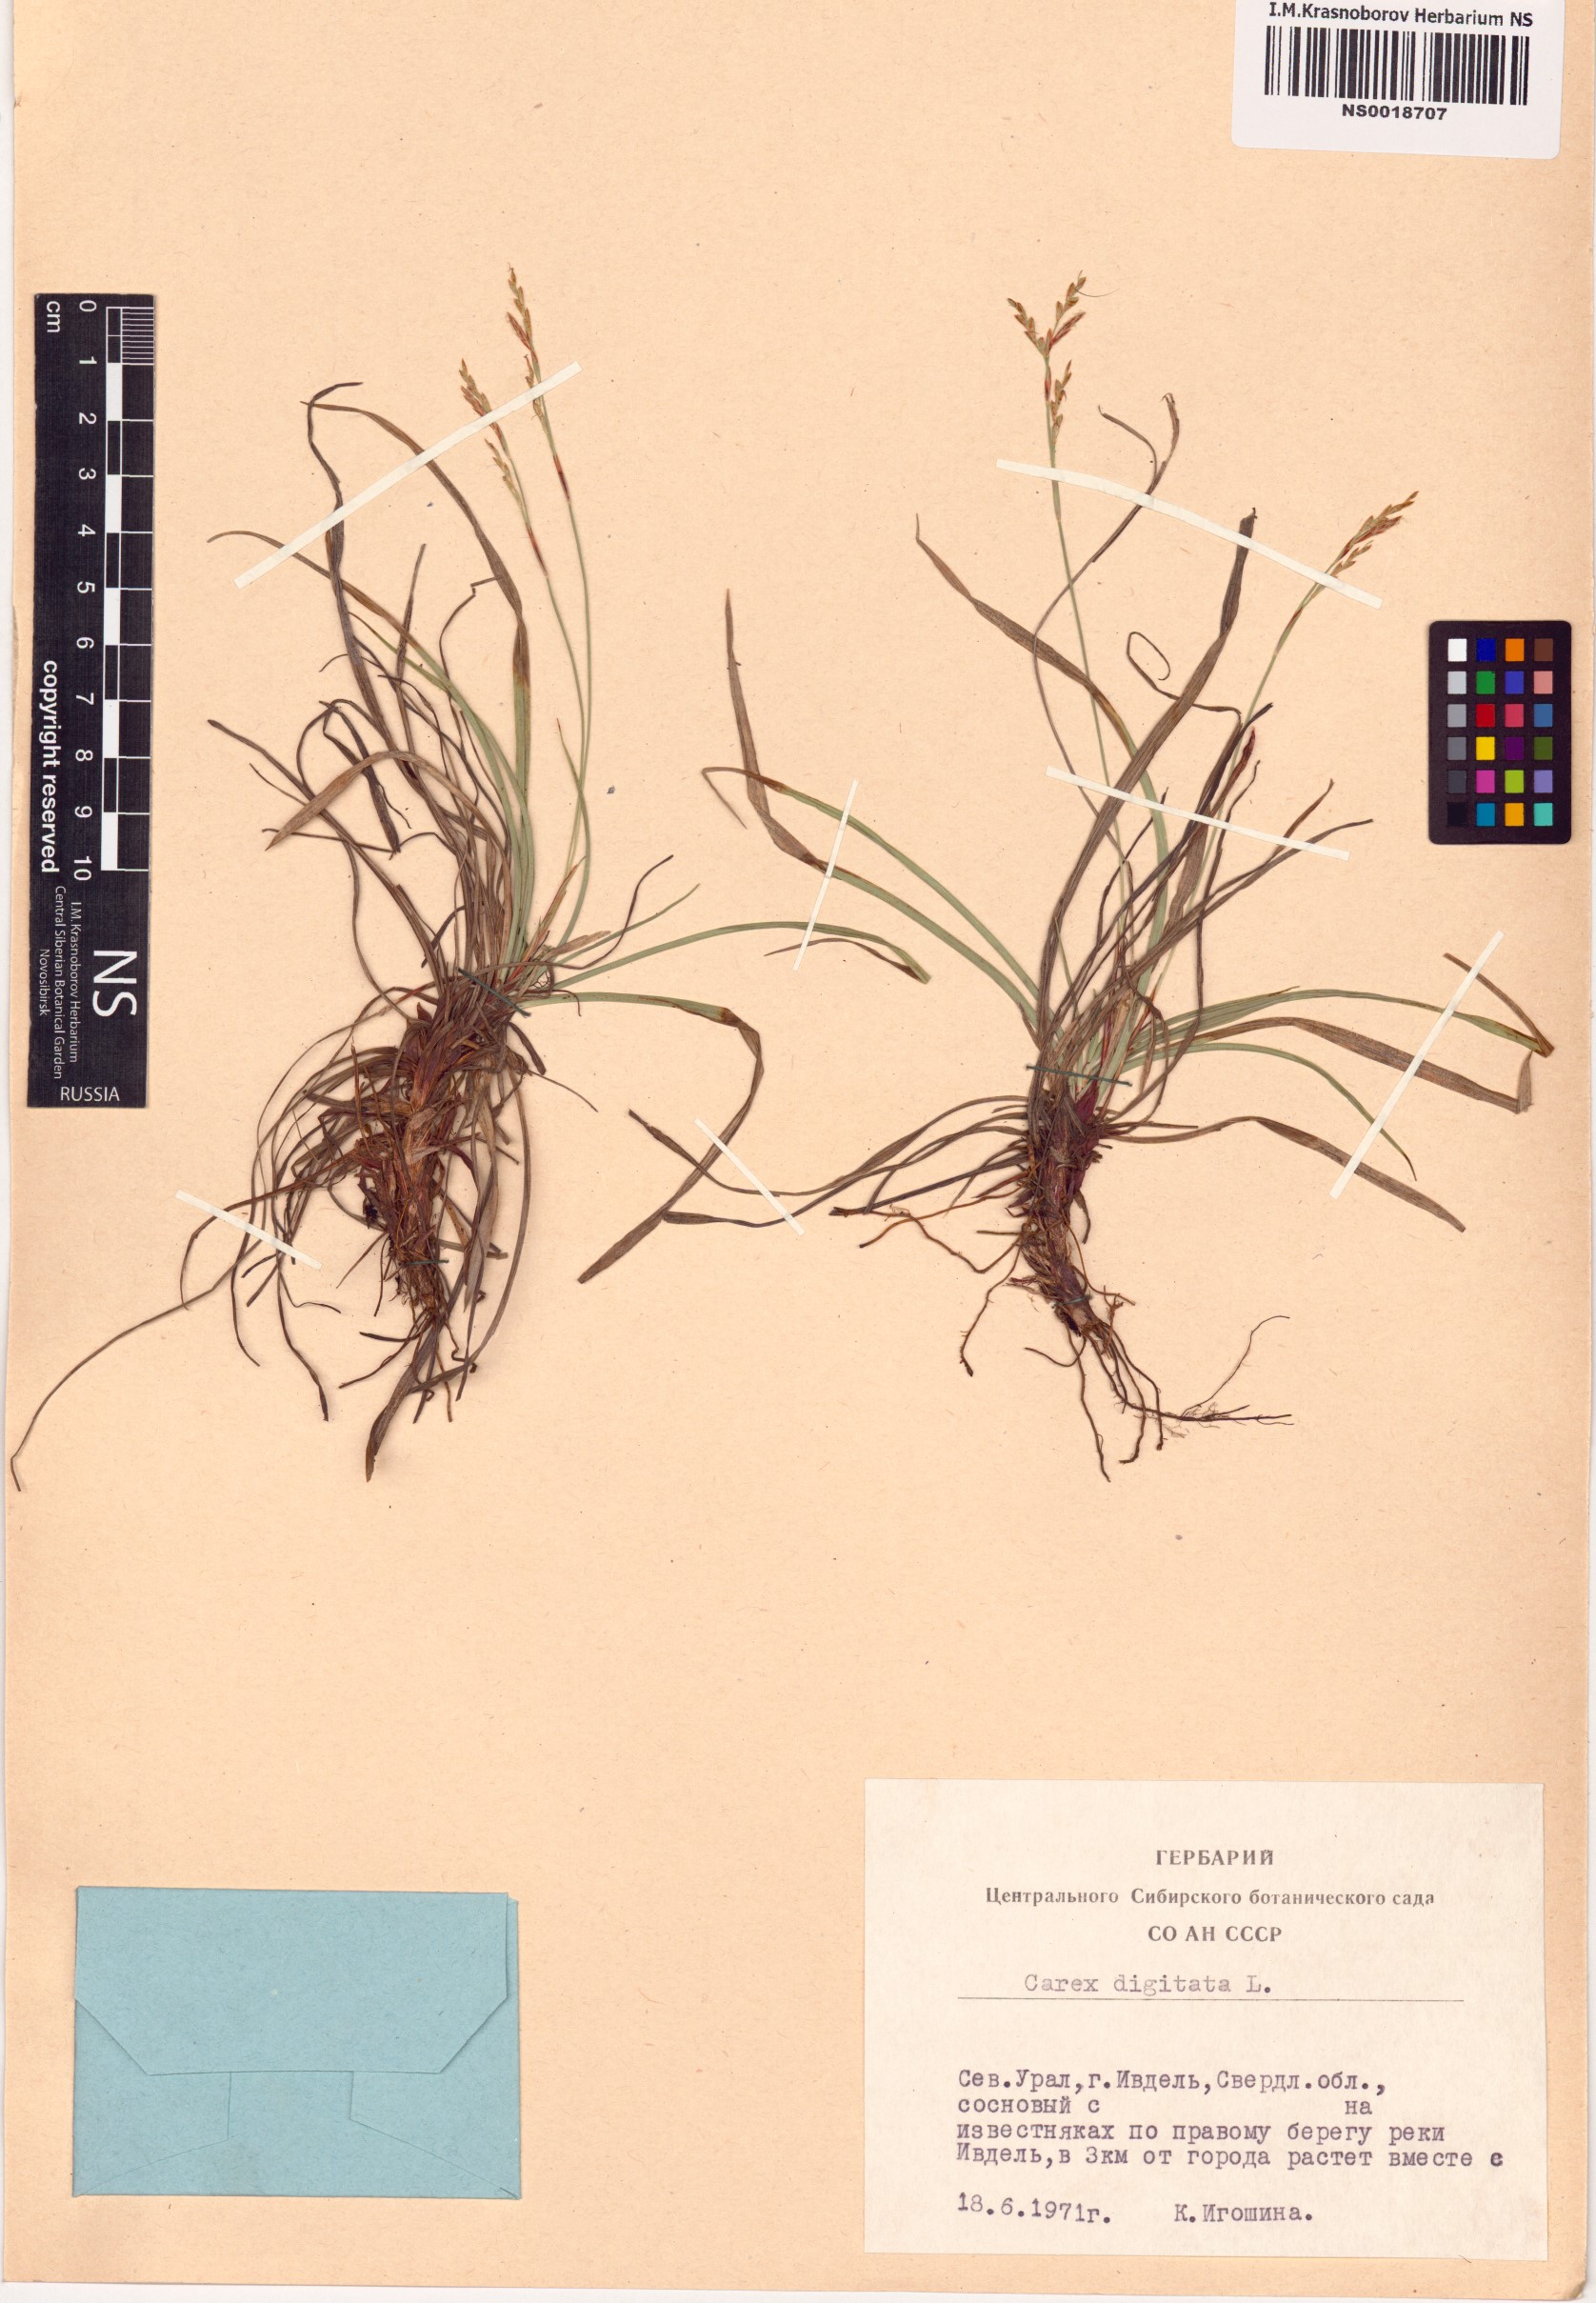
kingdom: Plantae
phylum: Tracheophyta
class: Liliopsida
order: Poales
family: Cyperaceae
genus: Carex
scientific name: Carex digitata
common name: Fingered sedge
